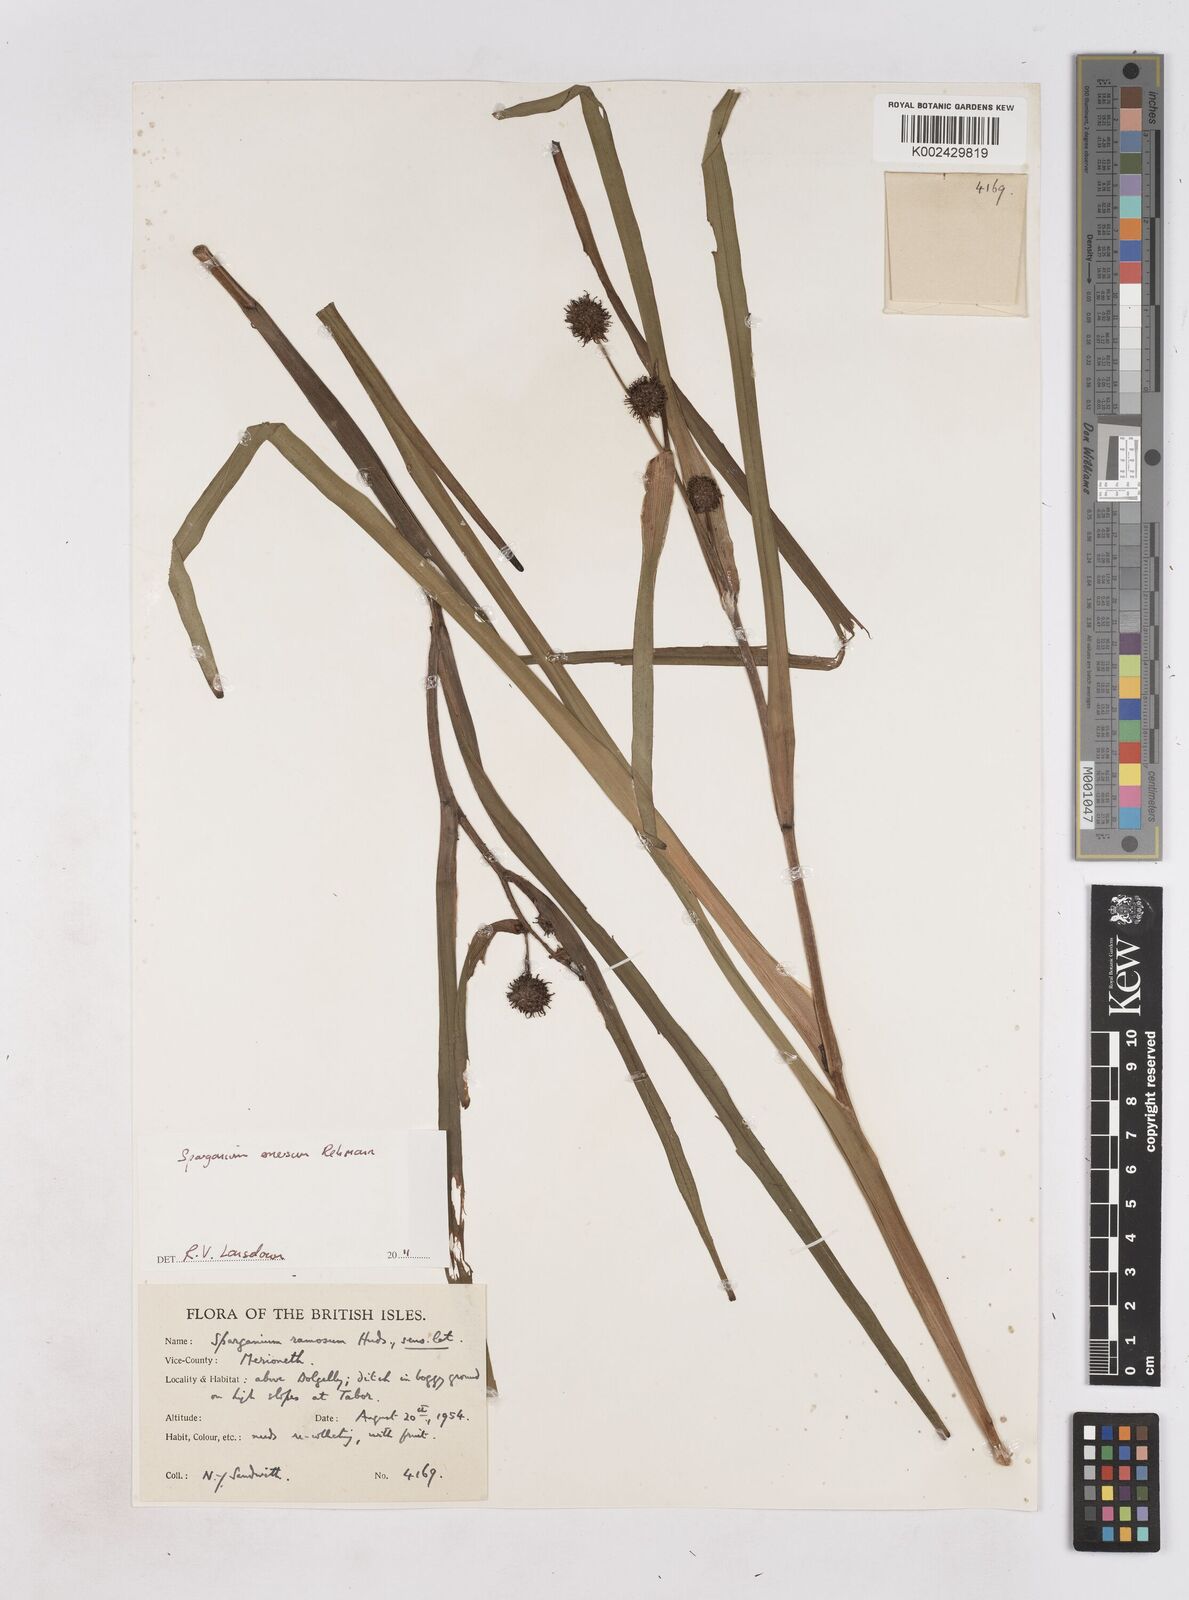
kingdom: Plantae
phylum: Tracheophyta
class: Liliopsida
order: Poales
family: Typhaceae
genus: Sparganium
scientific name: Sparganium emersum
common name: Unbranched bur-reed
